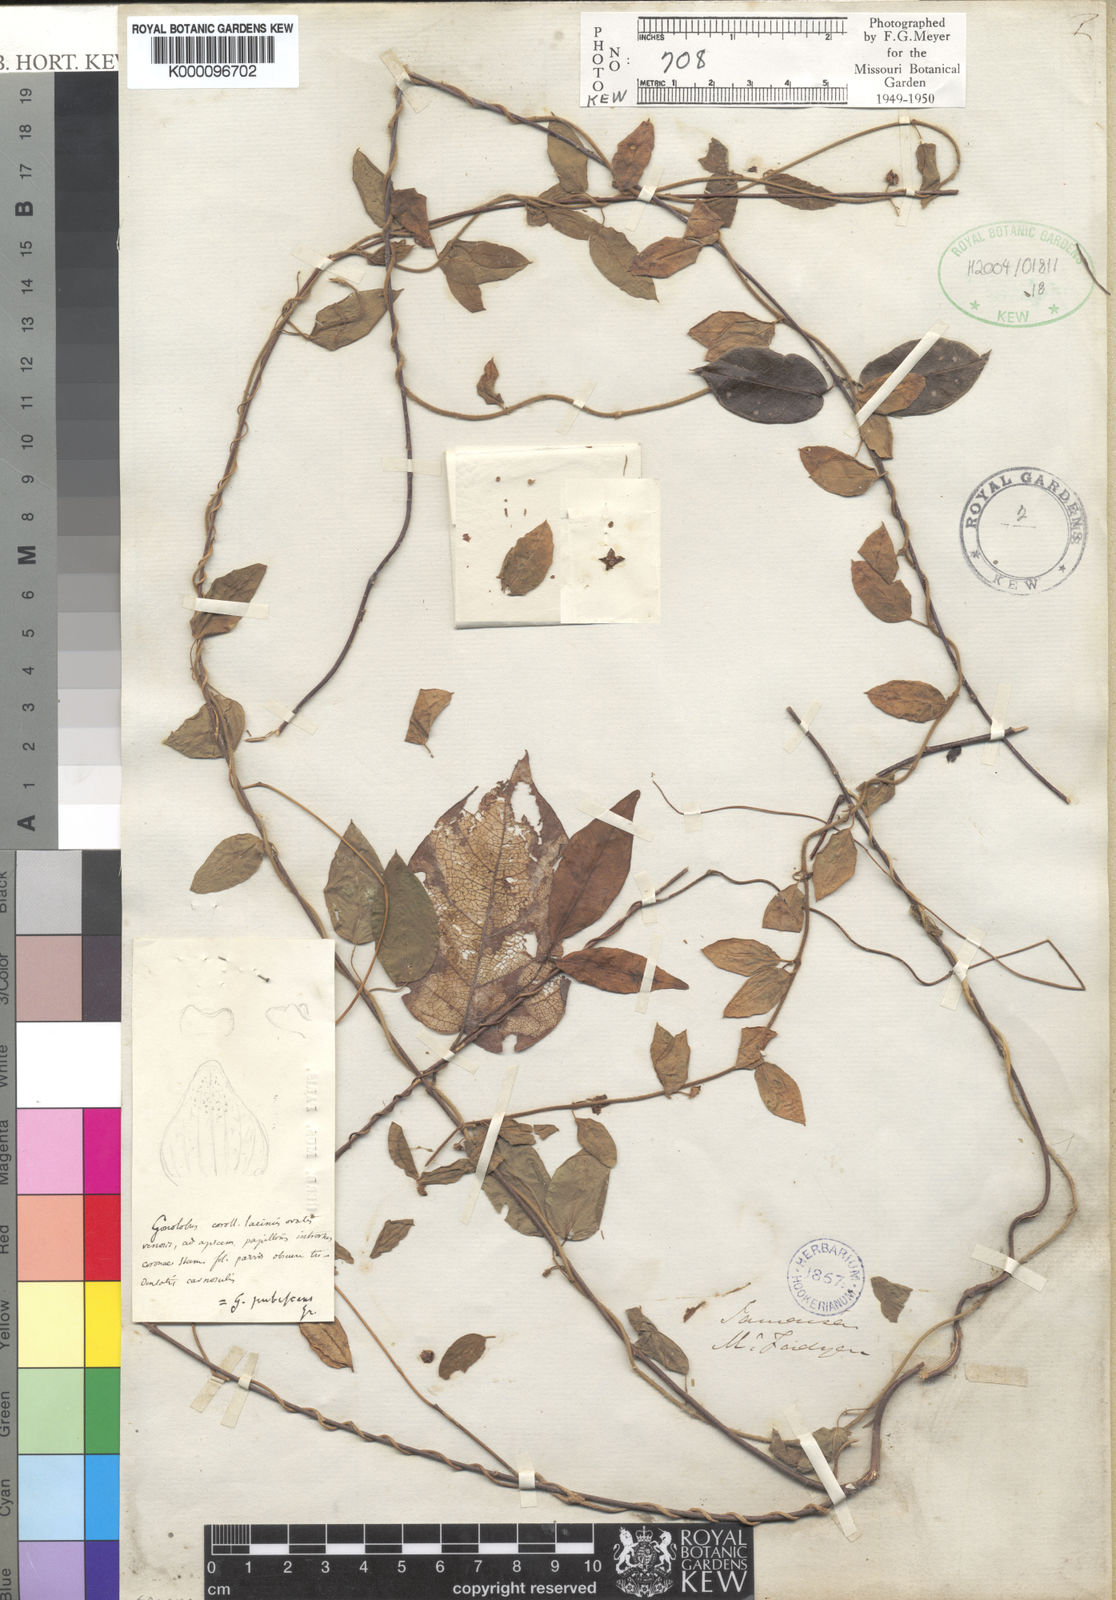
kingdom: Plantae
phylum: Tracheophyta
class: Magnoliopsida
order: Gentianales
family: Apocynaceae
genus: Matelea
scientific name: Matelea pubescens
